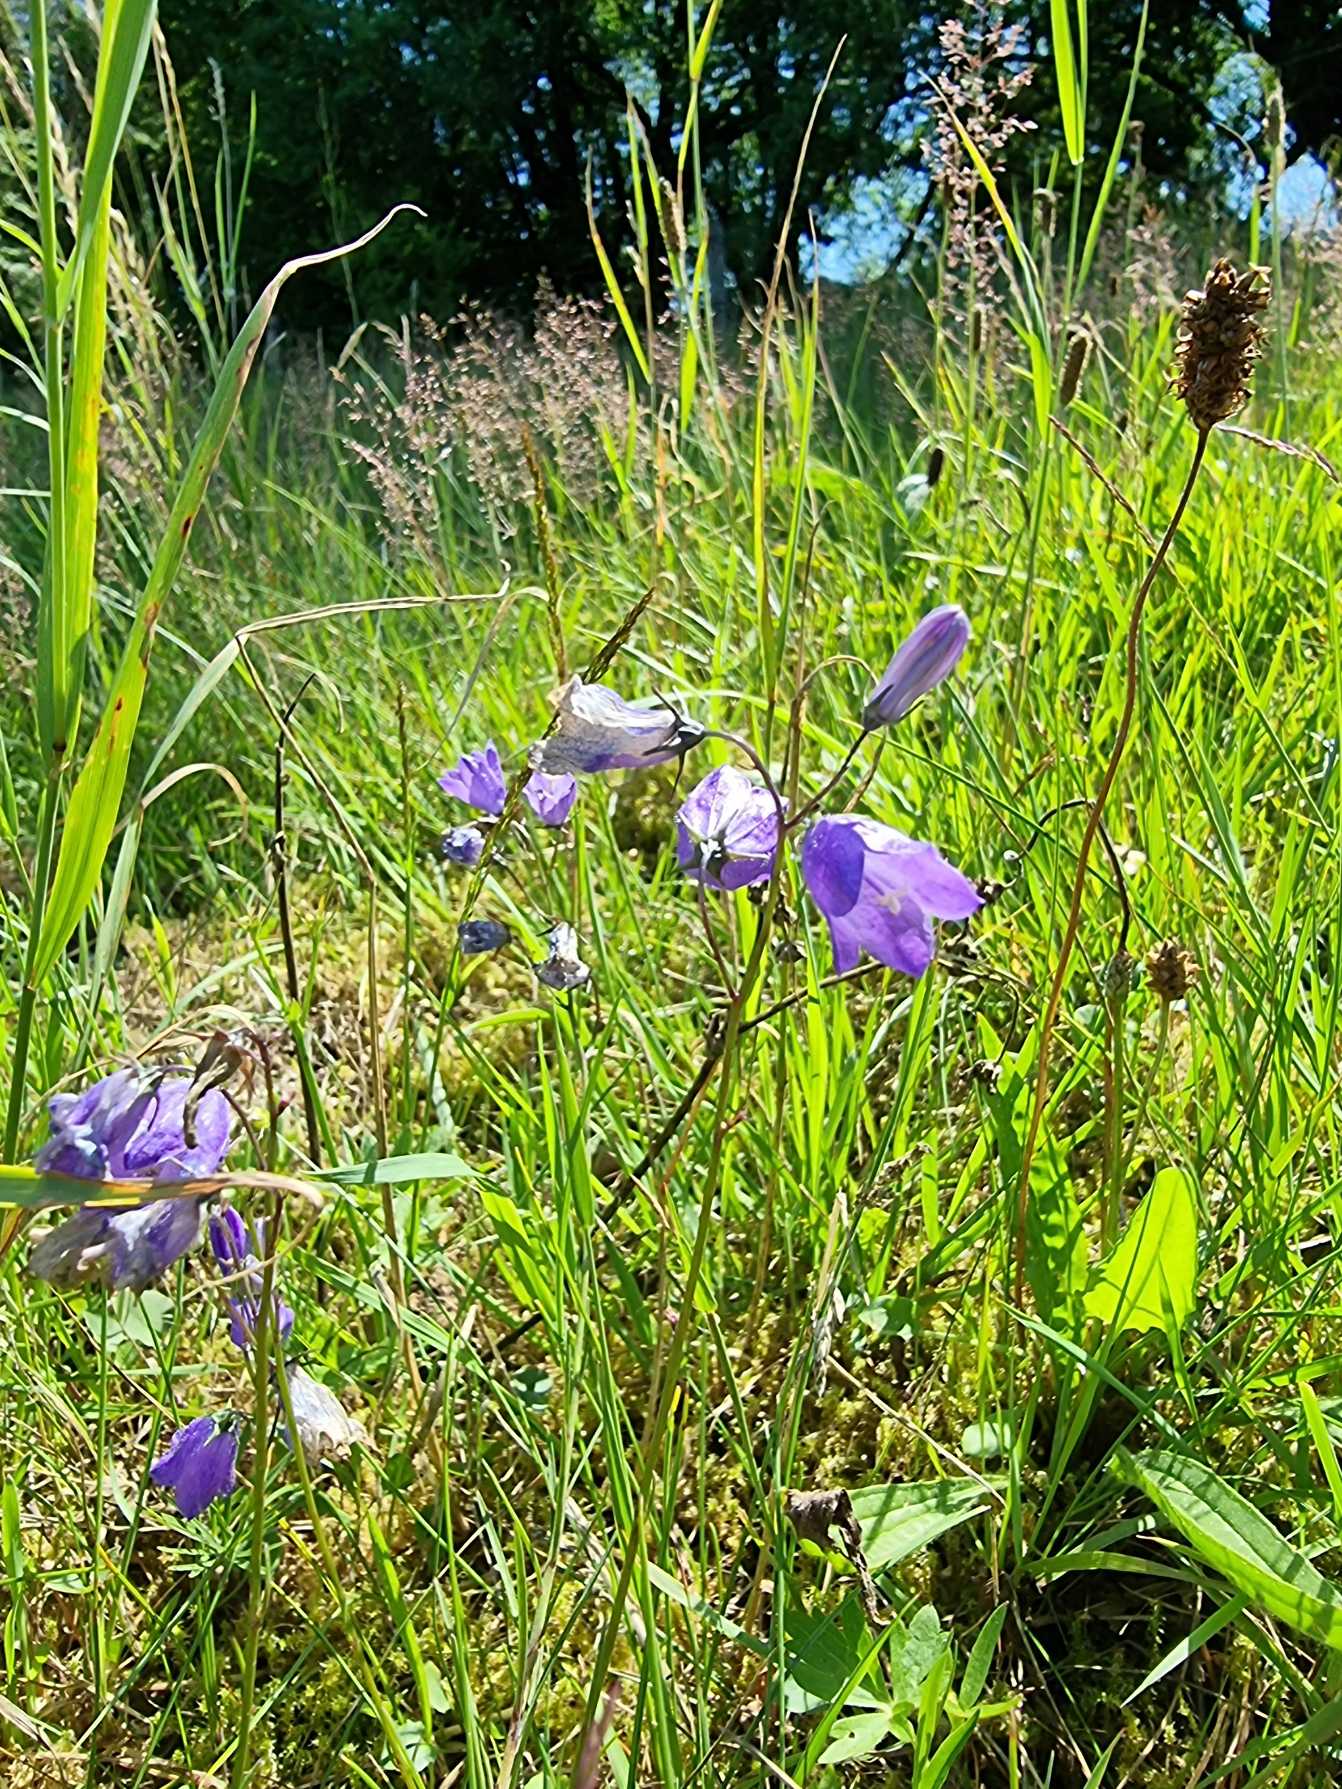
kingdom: Plantae
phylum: Tracheophyta
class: Magnoliopsida
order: Asterales
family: Campanulaceae
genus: Campanula
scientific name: Campanula rotundifolia
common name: Liden klokke
